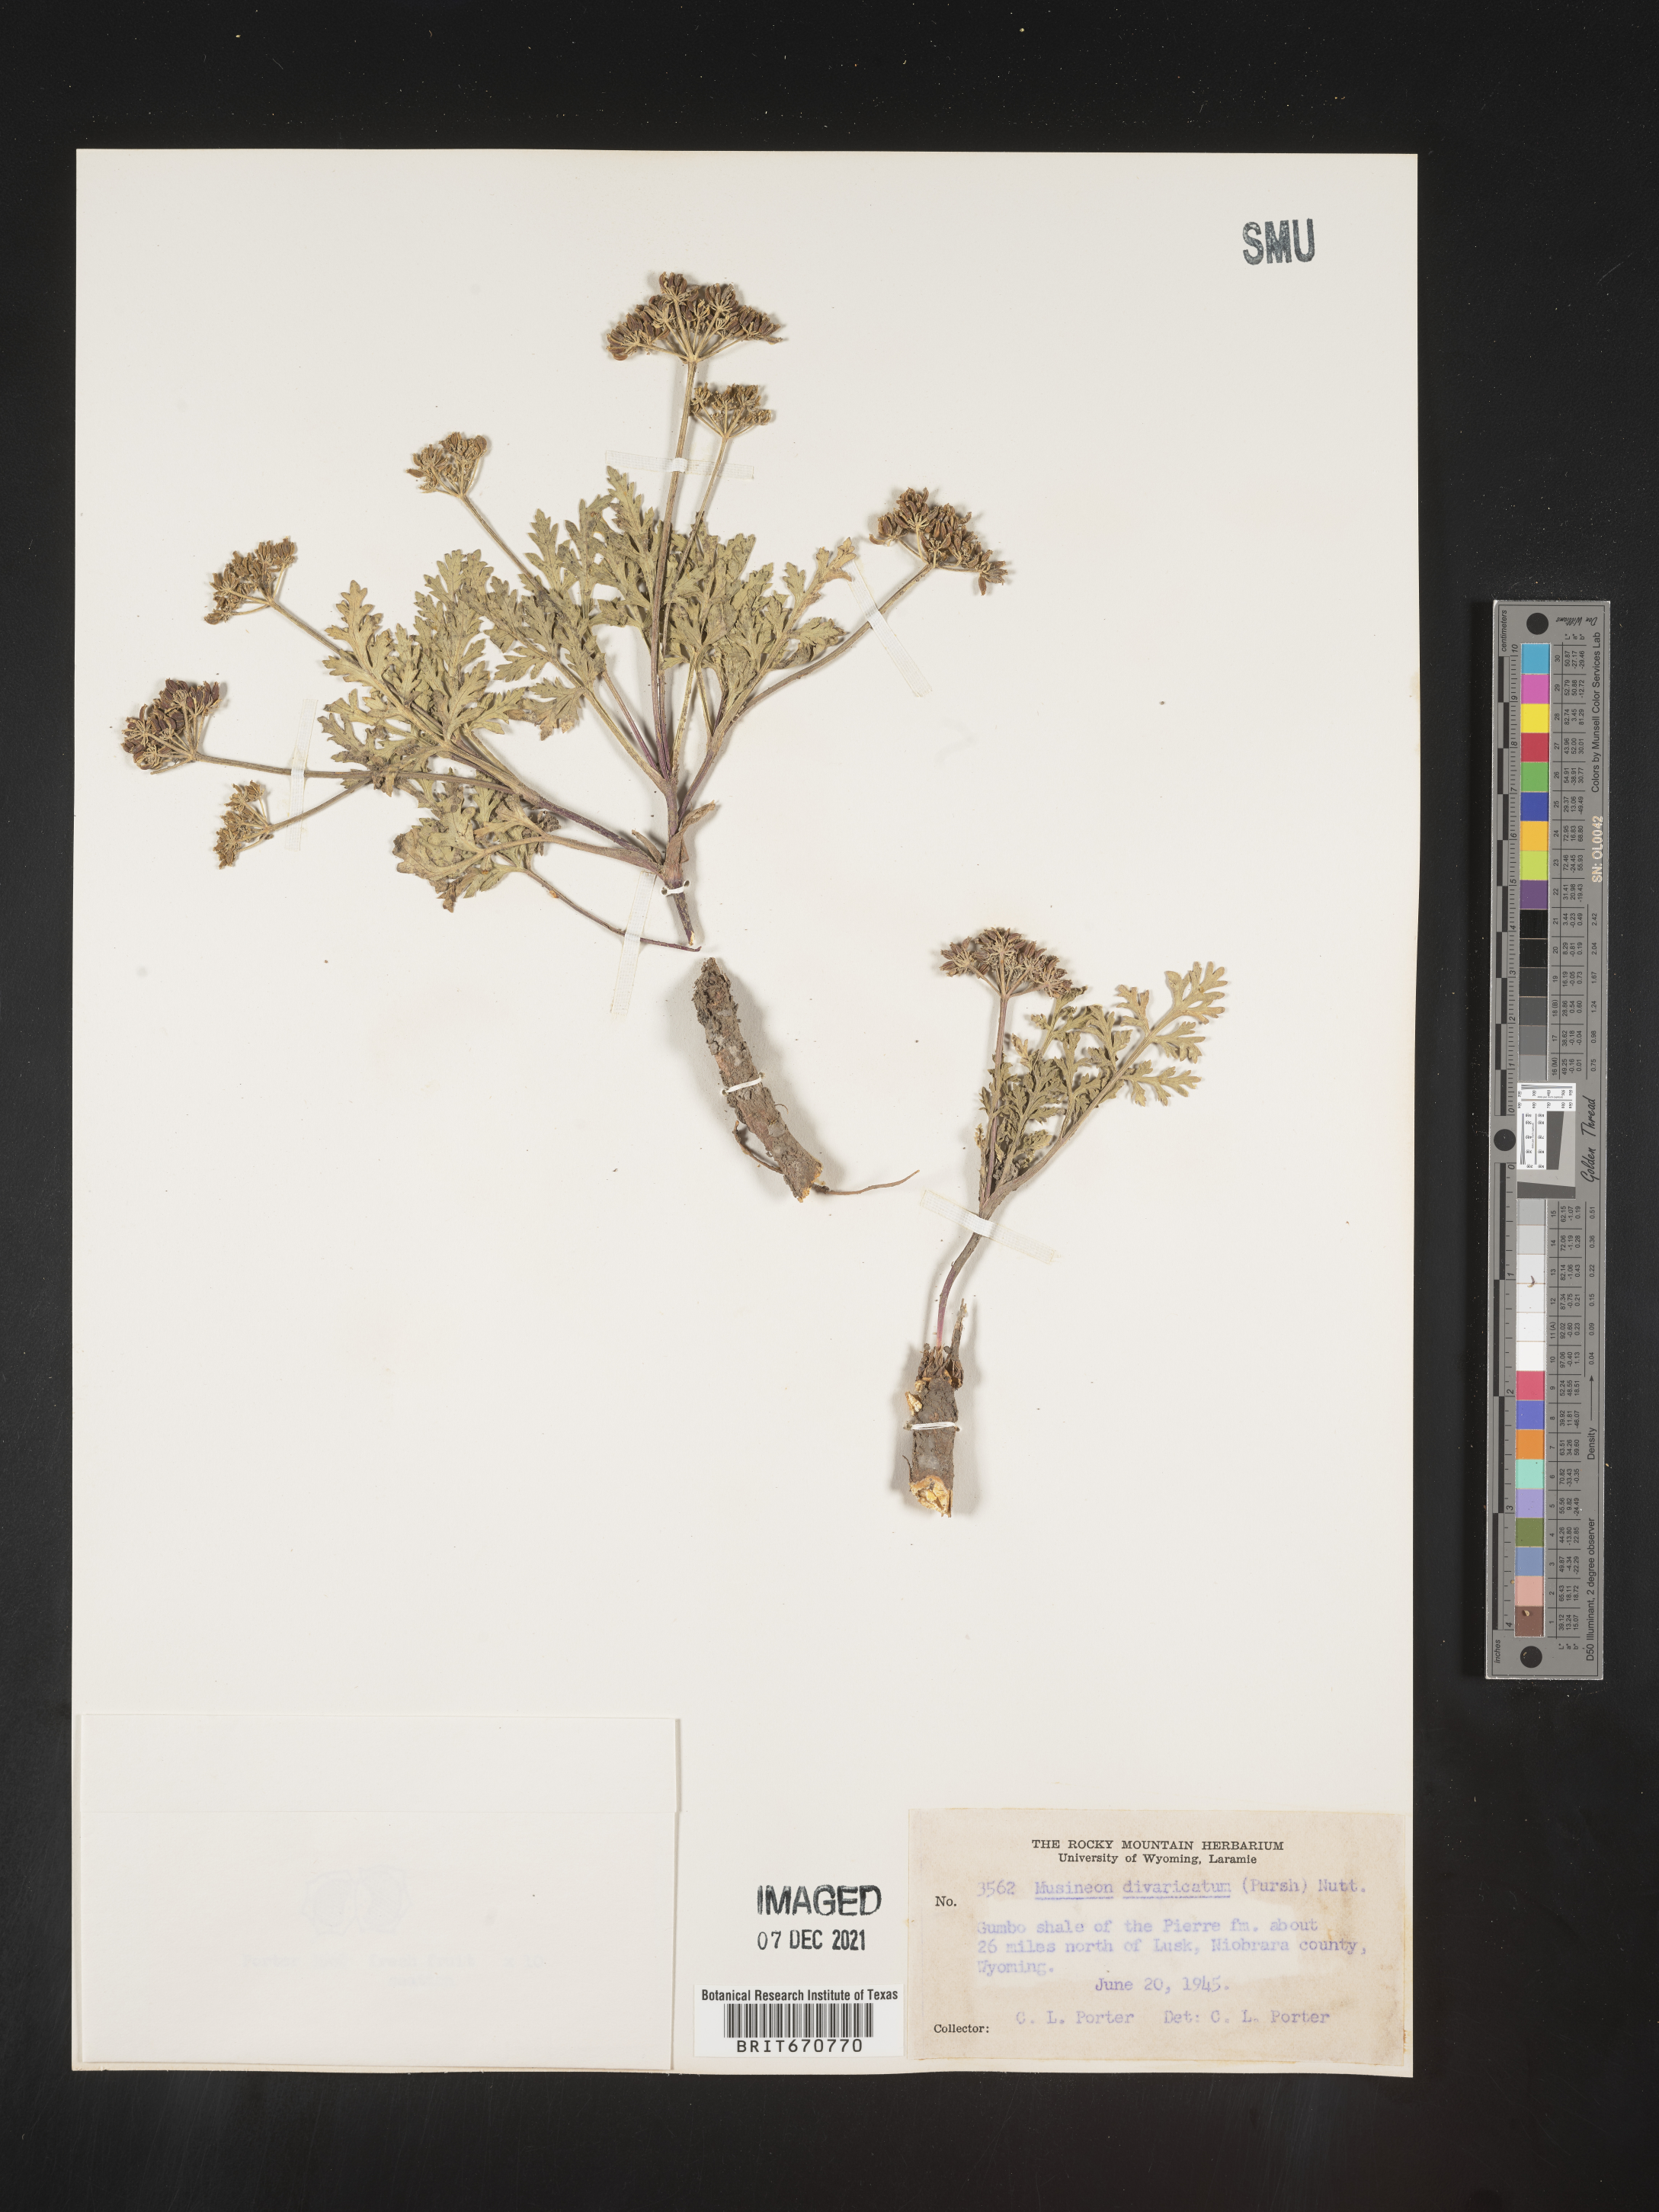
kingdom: Plantae
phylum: Tracheophyta
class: Magnoliopsida
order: Apiales
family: Apiaceae
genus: Musineon
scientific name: Musineon
